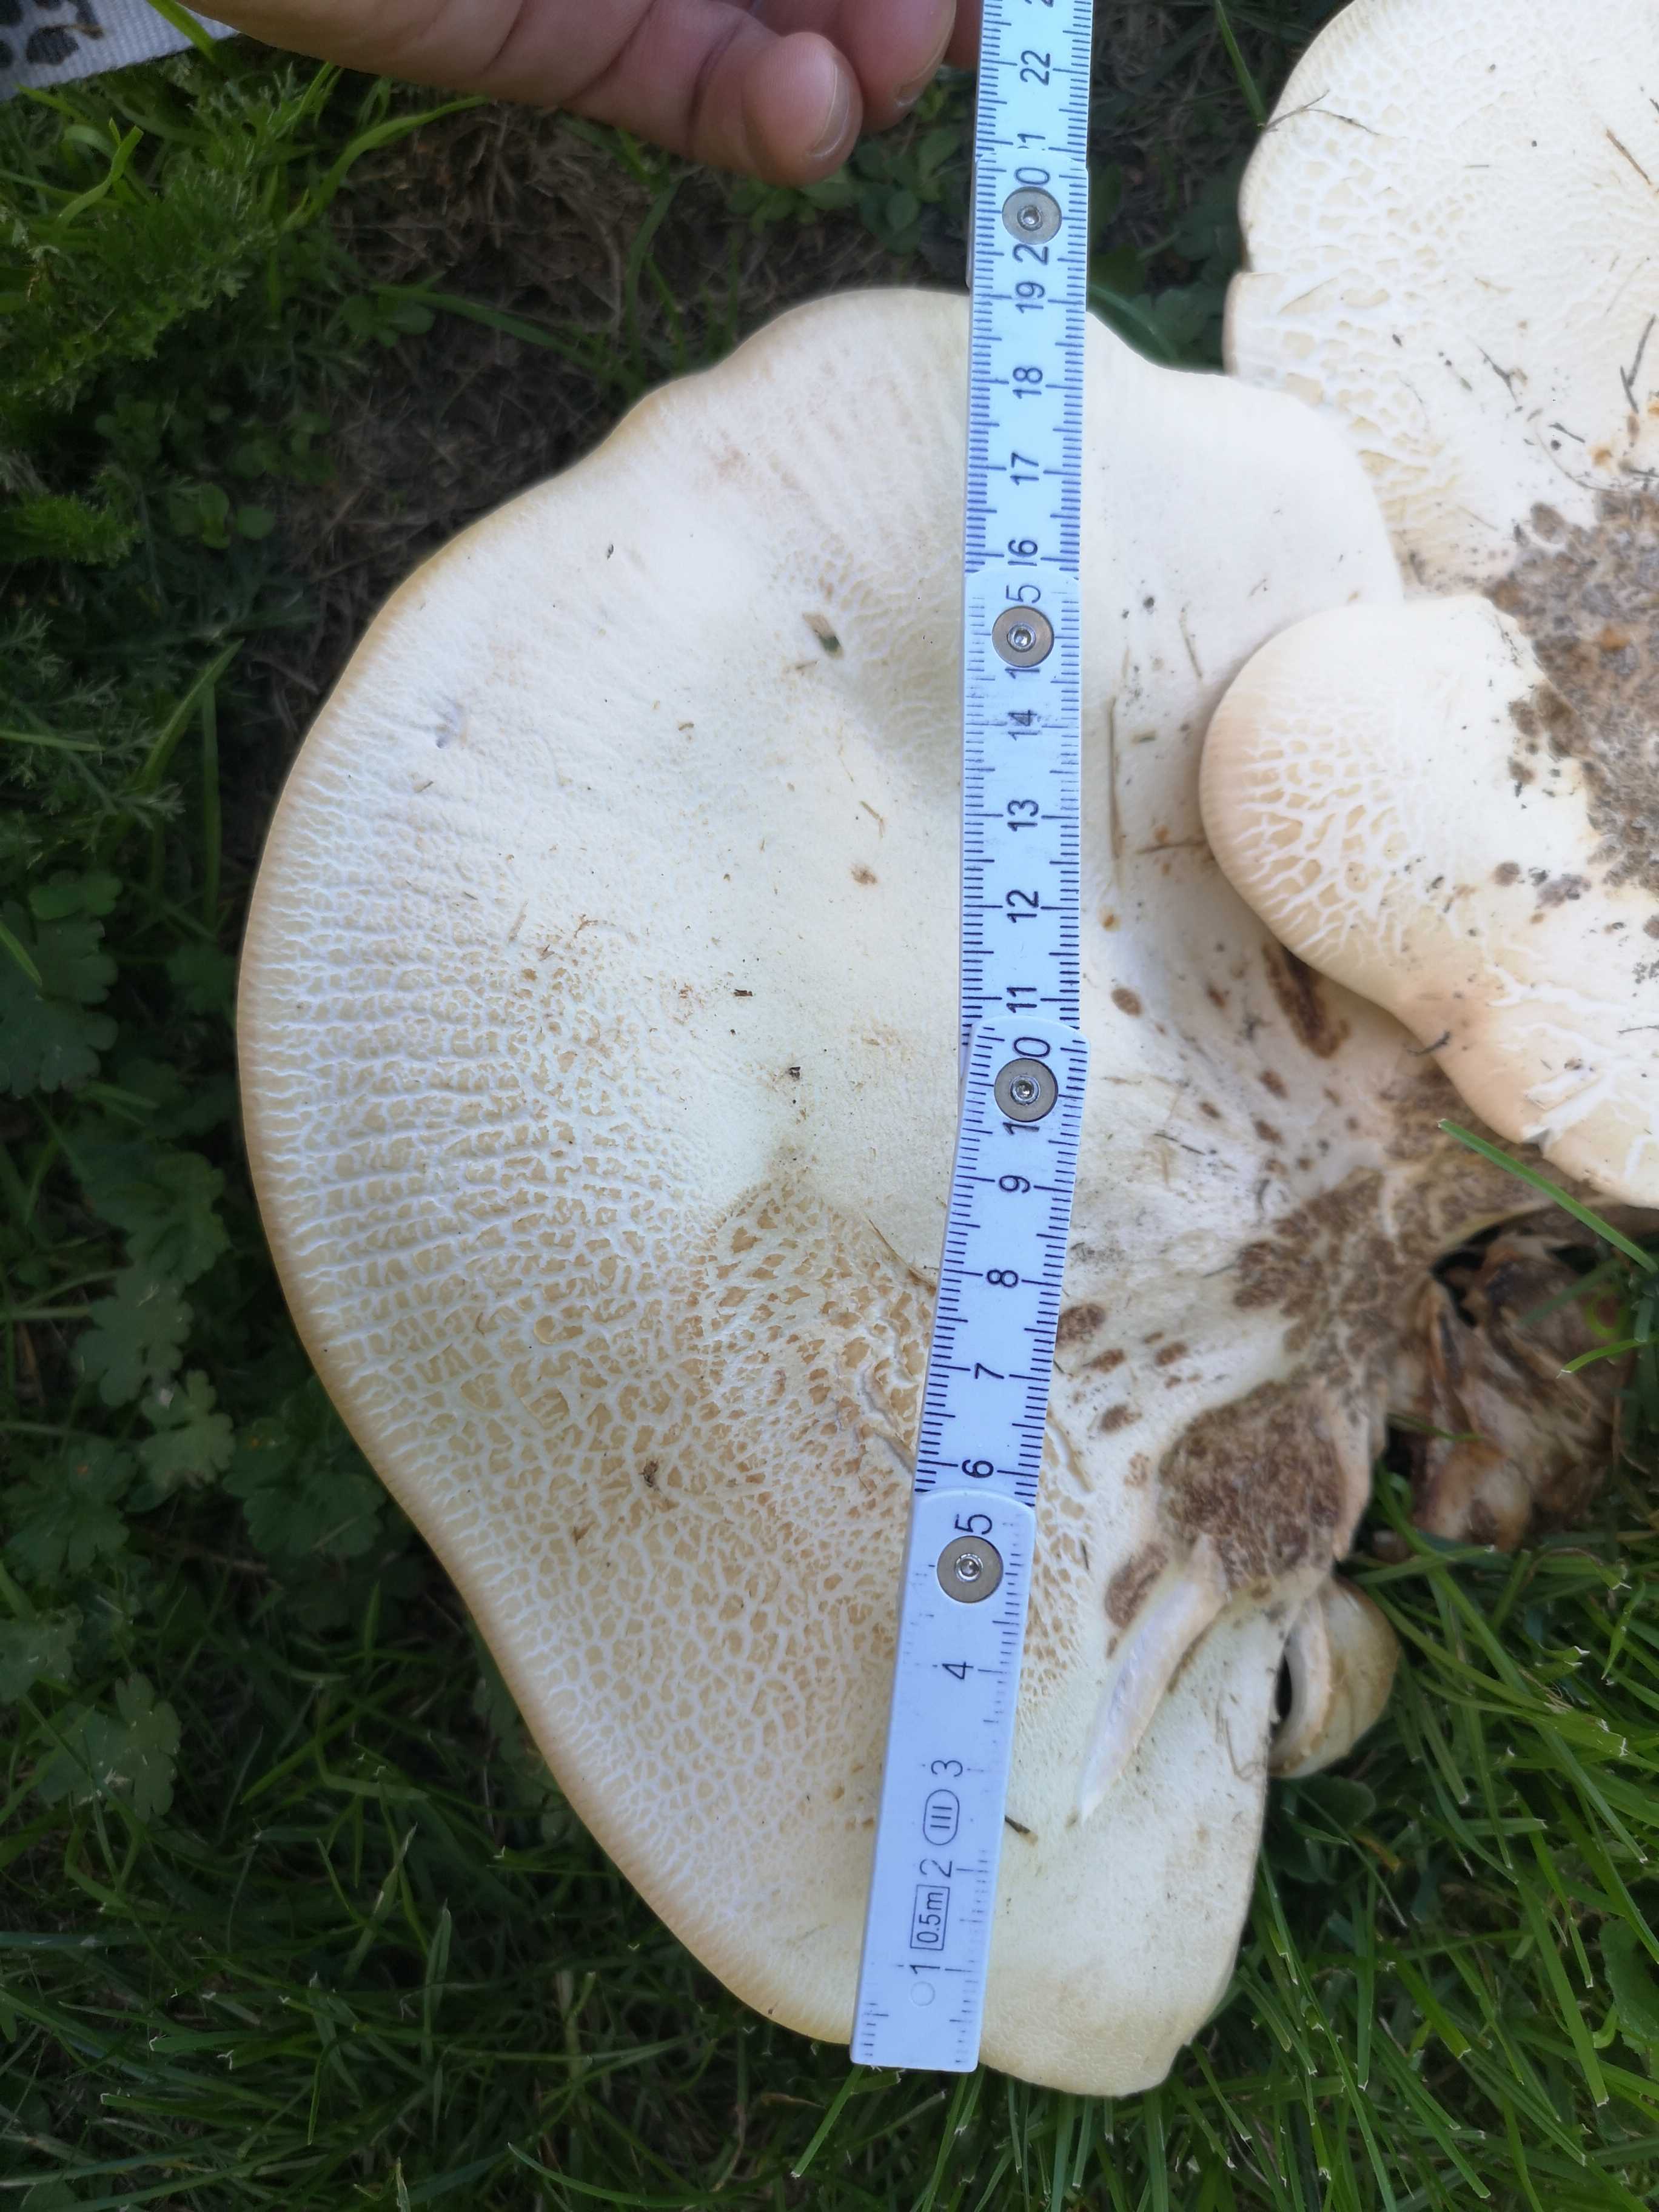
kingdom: Fungi
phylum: Basidiomycota
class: Agaricomycetes
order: Agaricales
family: Tricholomataceae
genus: Aspropaxillus
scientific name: Aspropaxillus giganteus
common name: kæmpe-tragtridderhat
